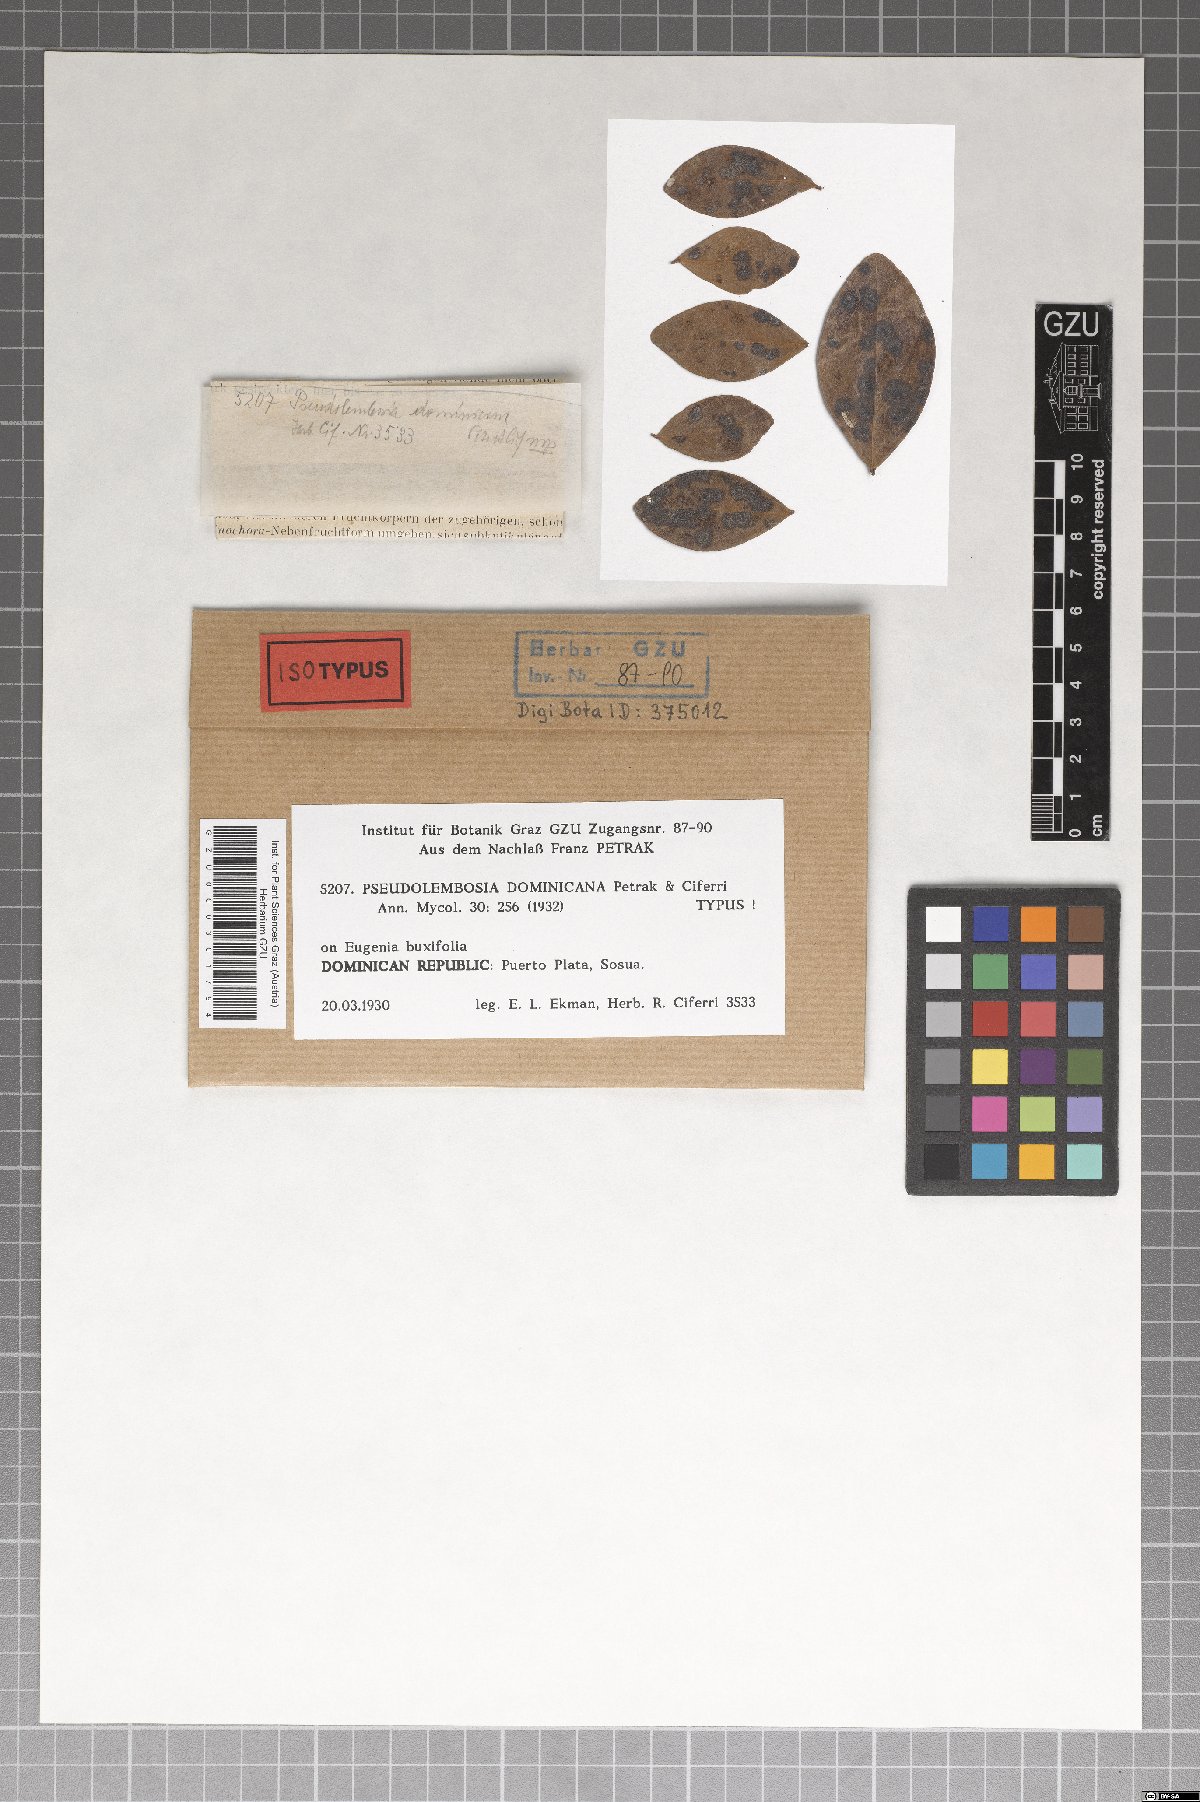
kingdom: Fungi
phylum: Ascomycota
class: Dothideomycetes
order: Asterinales
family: Parmulariaceae
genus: Pseudolembosia
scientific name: Pseudolembosia dominicana
